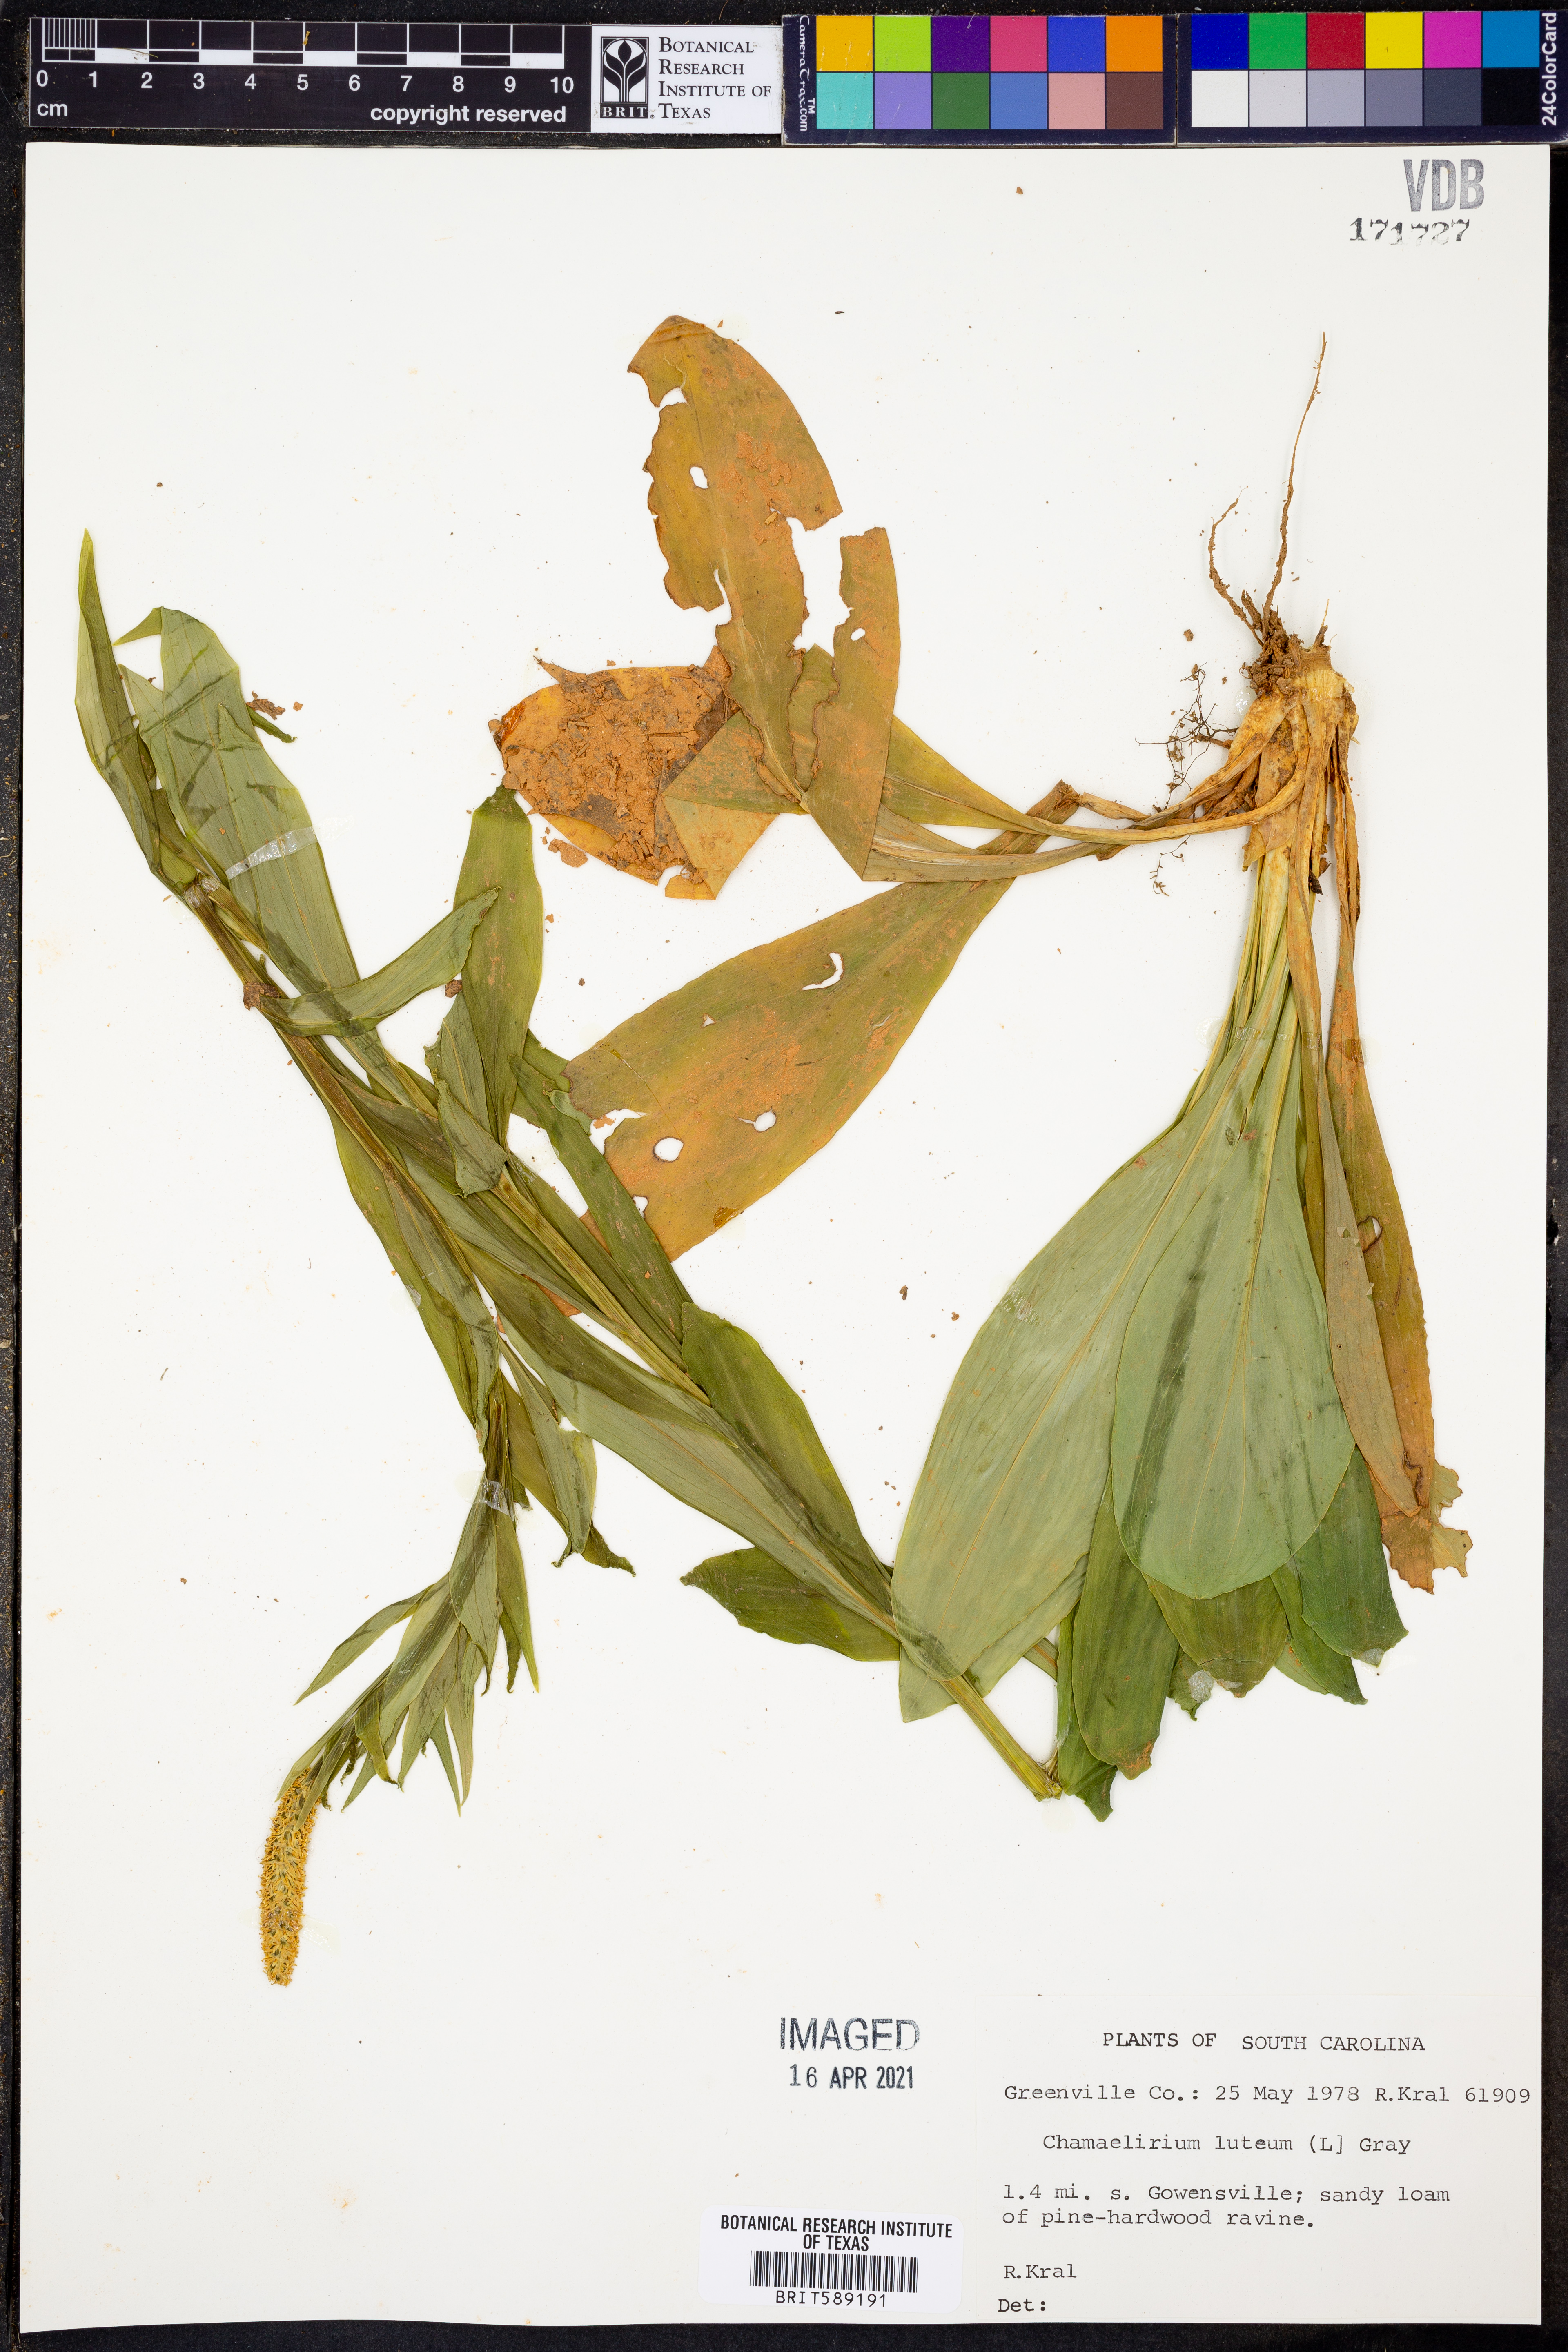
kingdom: Plantae
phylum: Tracheophyta
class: Liliopsida
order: Liliales
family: Melanthiaceae
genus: Chamaelirium
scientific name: Chamaelirium luteum
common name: Fairy-wand
